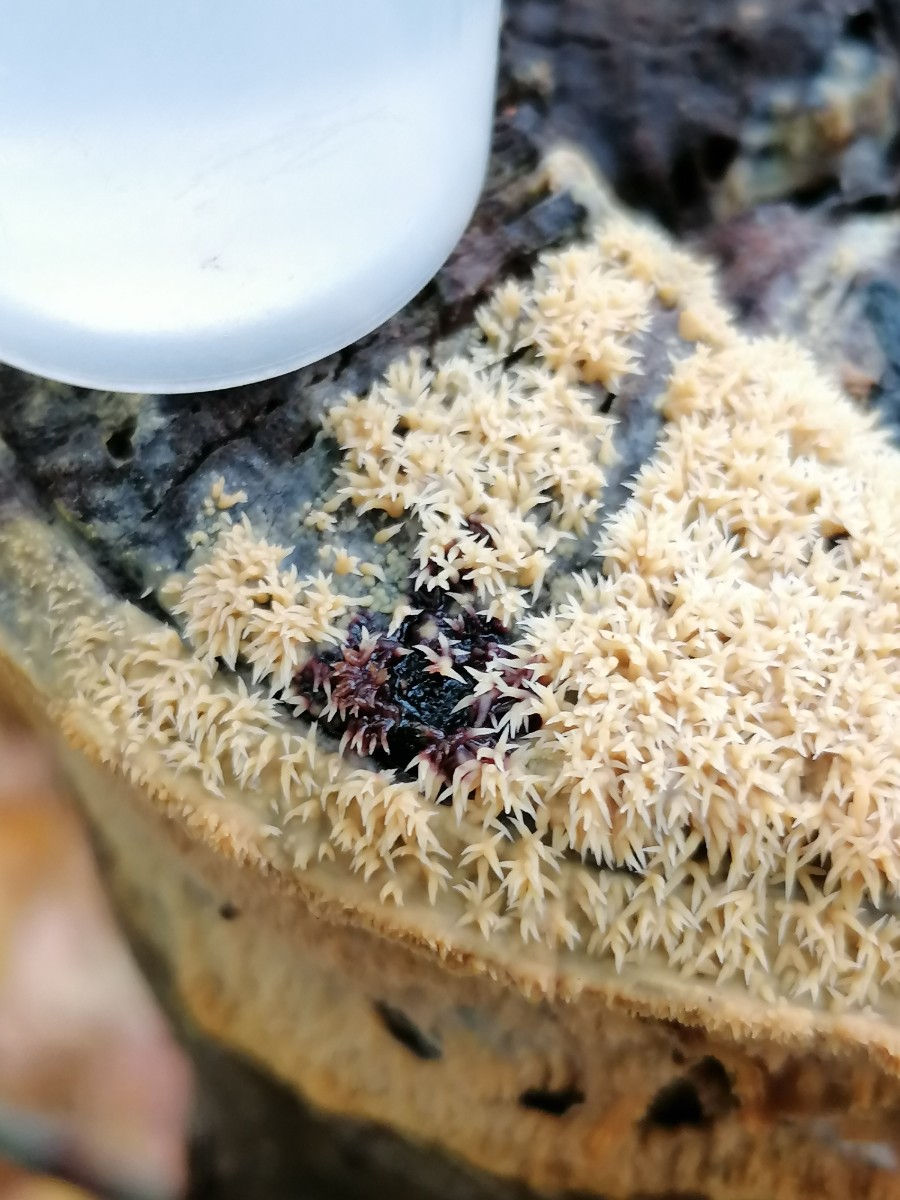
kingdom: Fungi
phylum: Basidiomycota
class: Agaricomycetes
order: Polyporales
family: Meruliaceae
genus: Mycoacia
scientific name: Mycoacia uda
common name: citrongul vokspig
